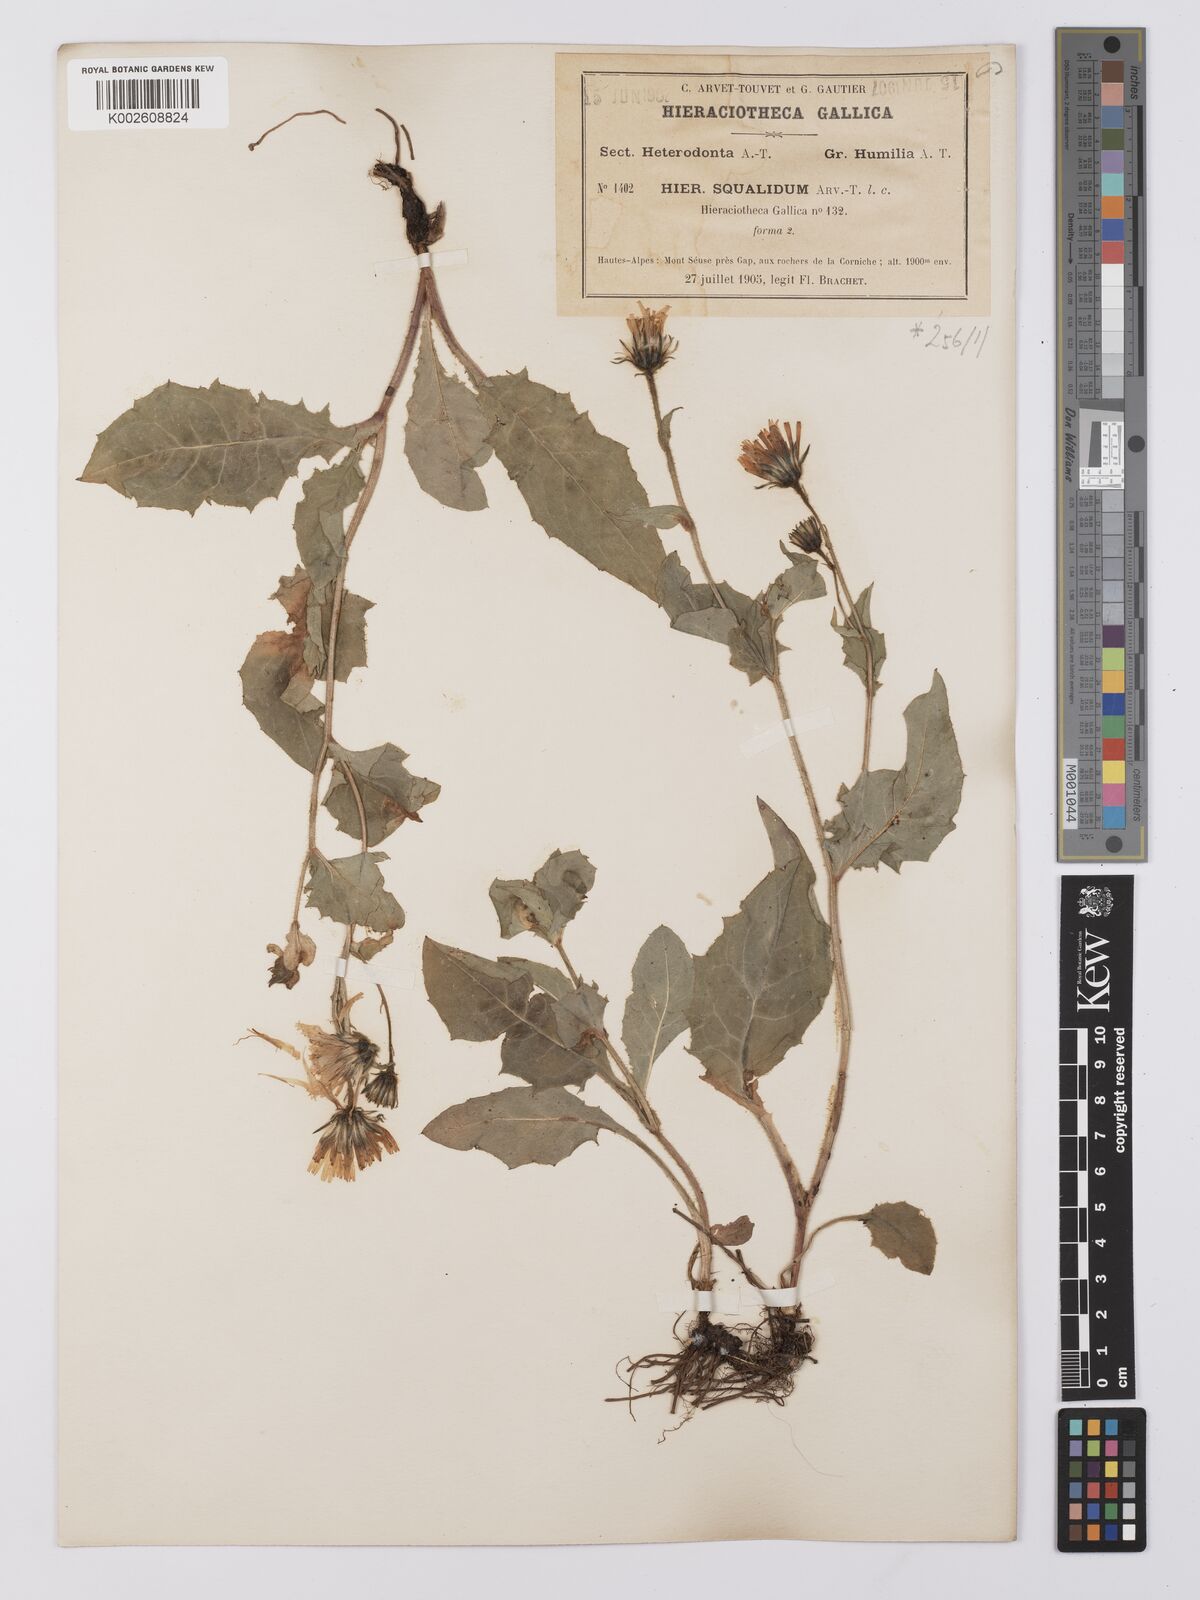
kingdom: Plantae
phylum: Tracheophyta
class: Magnoliopsida
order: Asterales
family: Asteraceae
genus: Hieracium
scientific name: Hieracium cottetii
